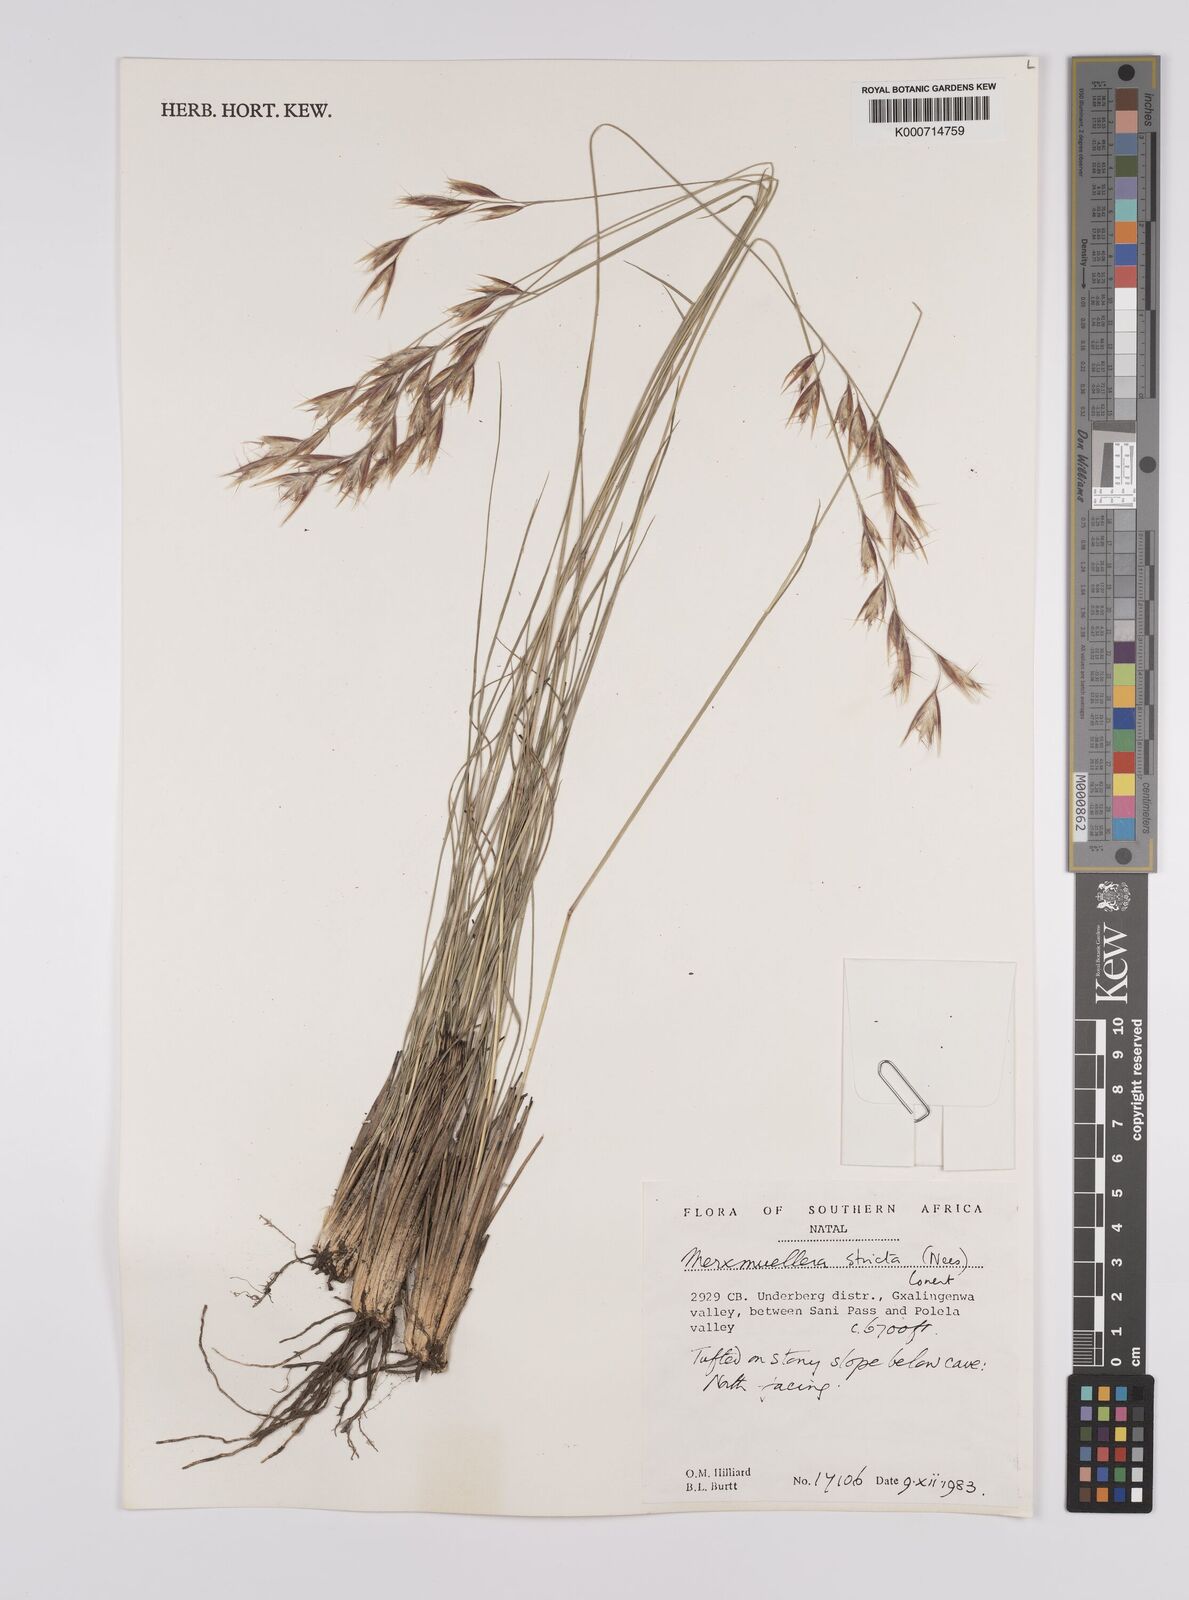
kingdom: Plantae
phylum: Tracheophyta
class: Liliopsida
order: Poales
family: Poaceae
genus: Rytidosperma
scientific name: Rytidosperma
